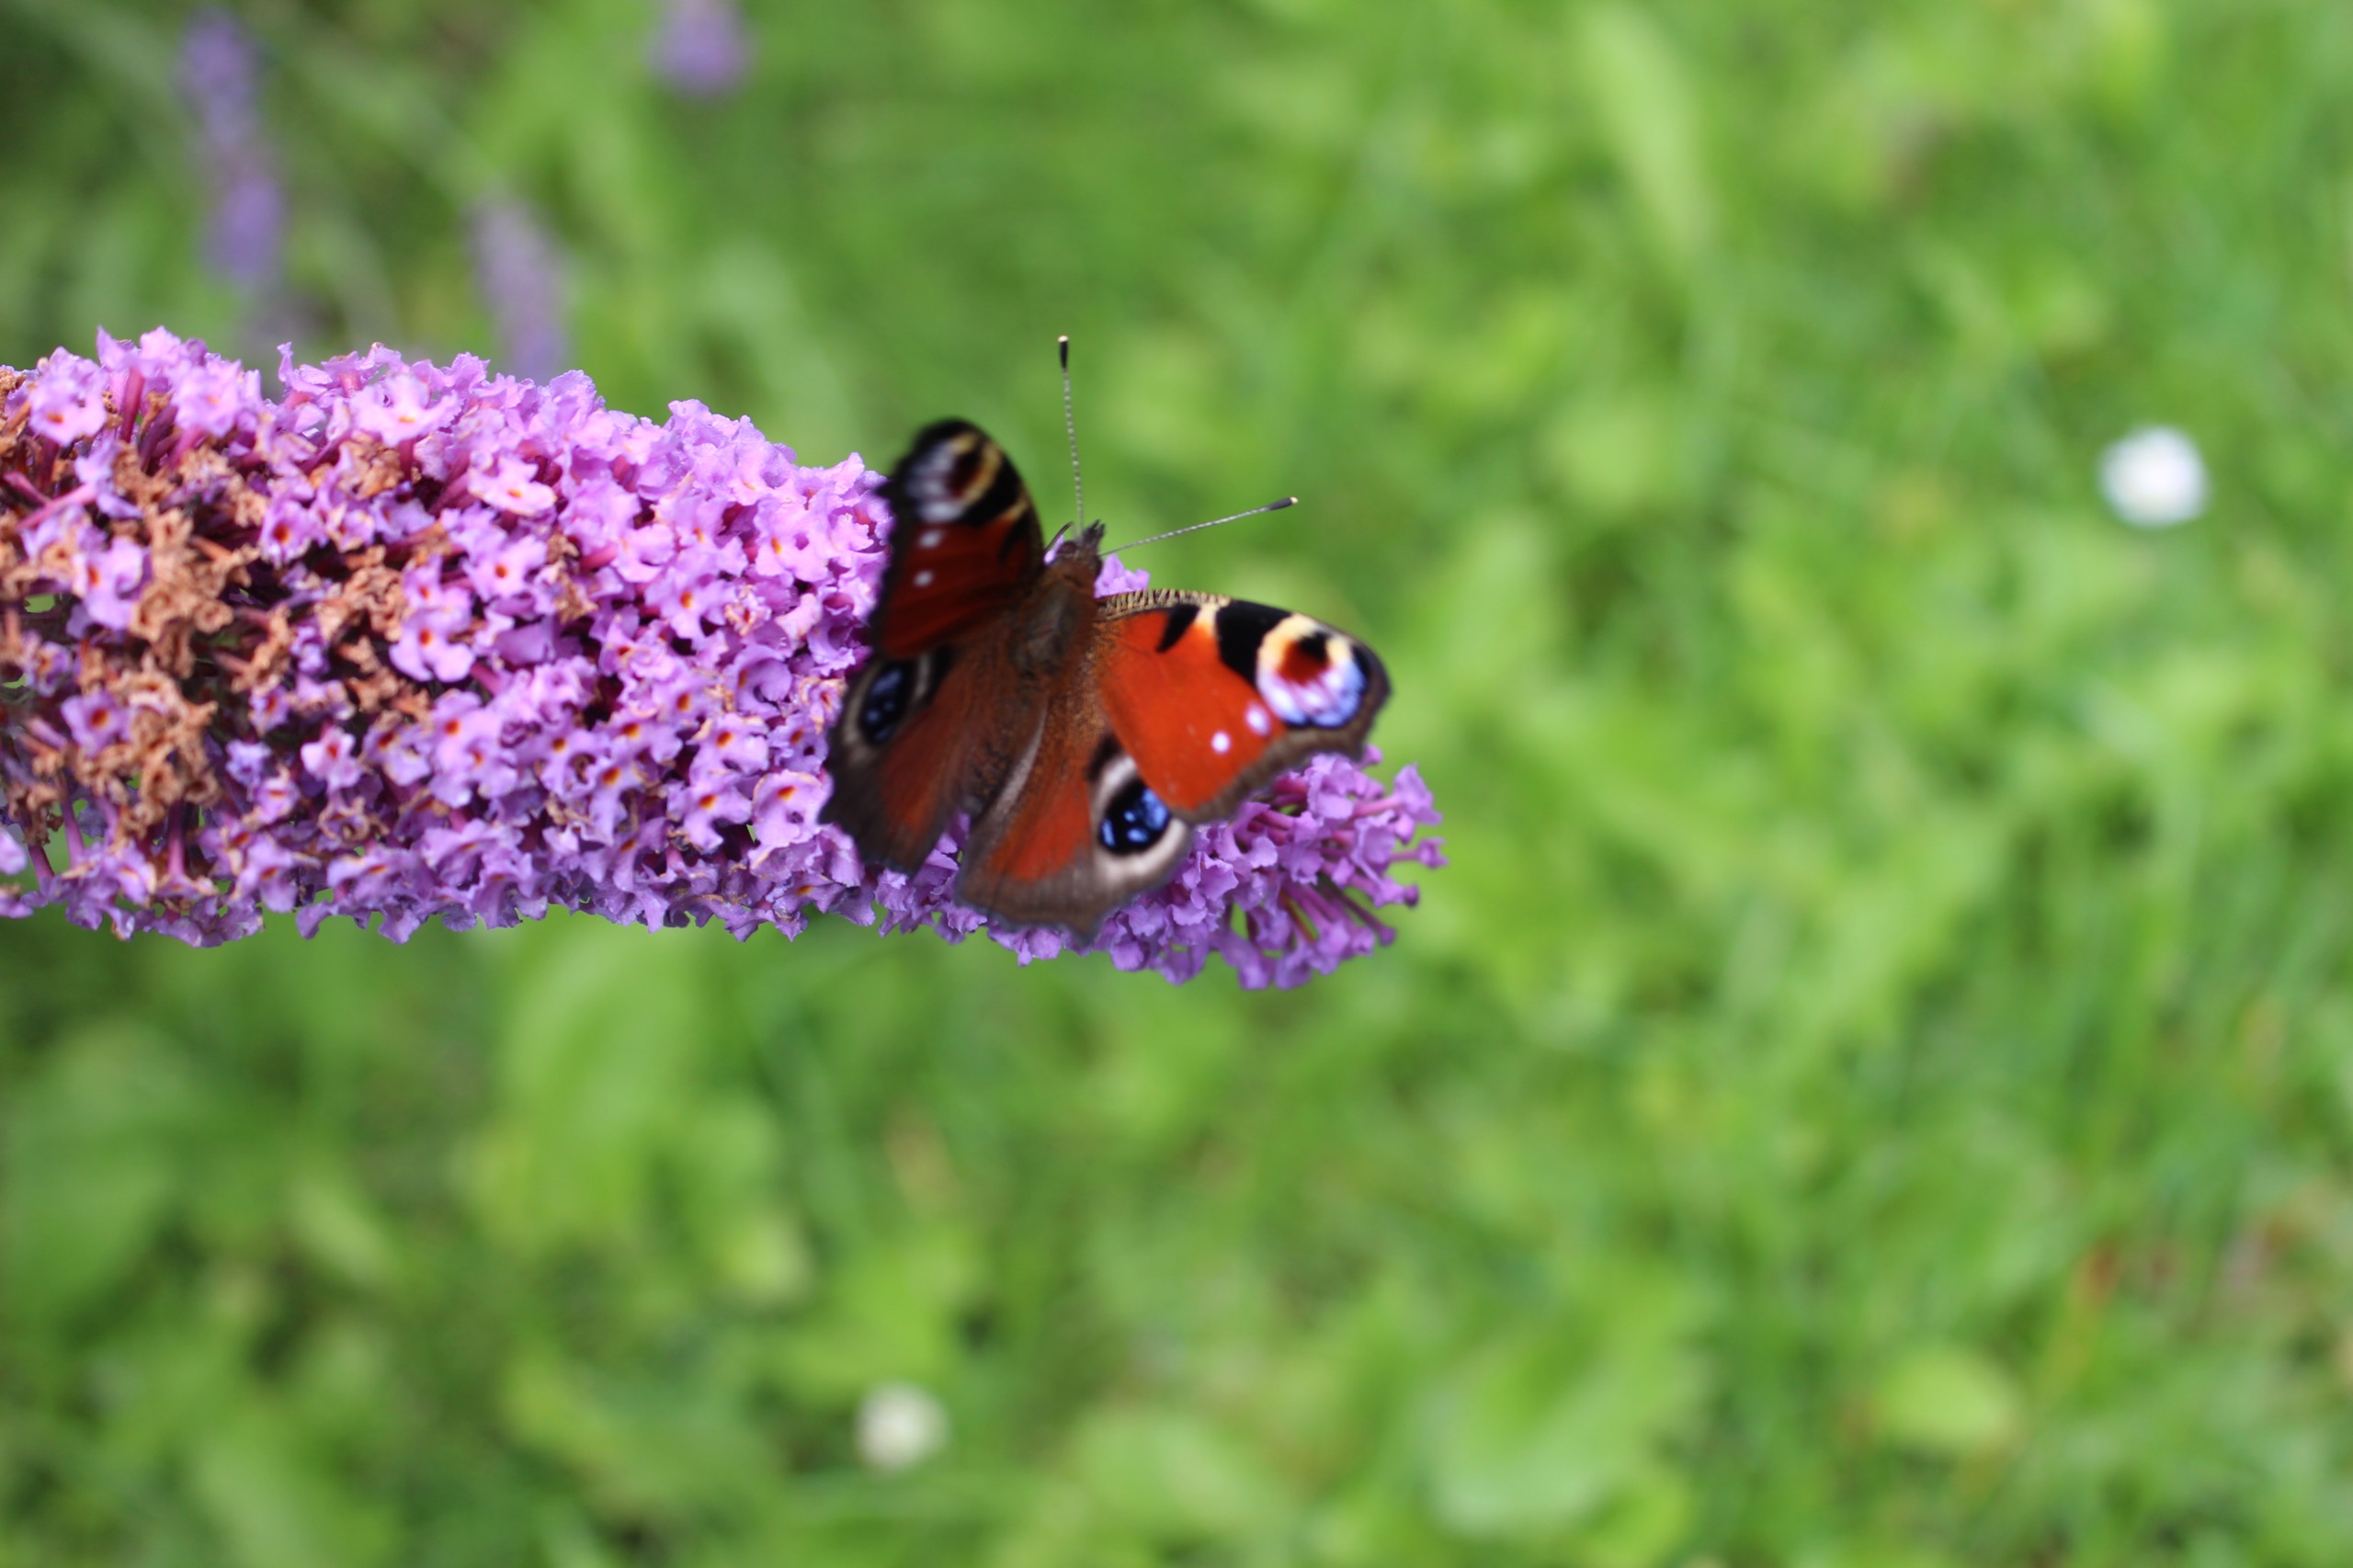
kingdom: Animalia
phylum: Arthropoda
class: Insecta
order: Lepidoptera
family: Nymphalidae
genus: Aglais
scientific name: Aglais io
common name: Dagpåfugleøje
